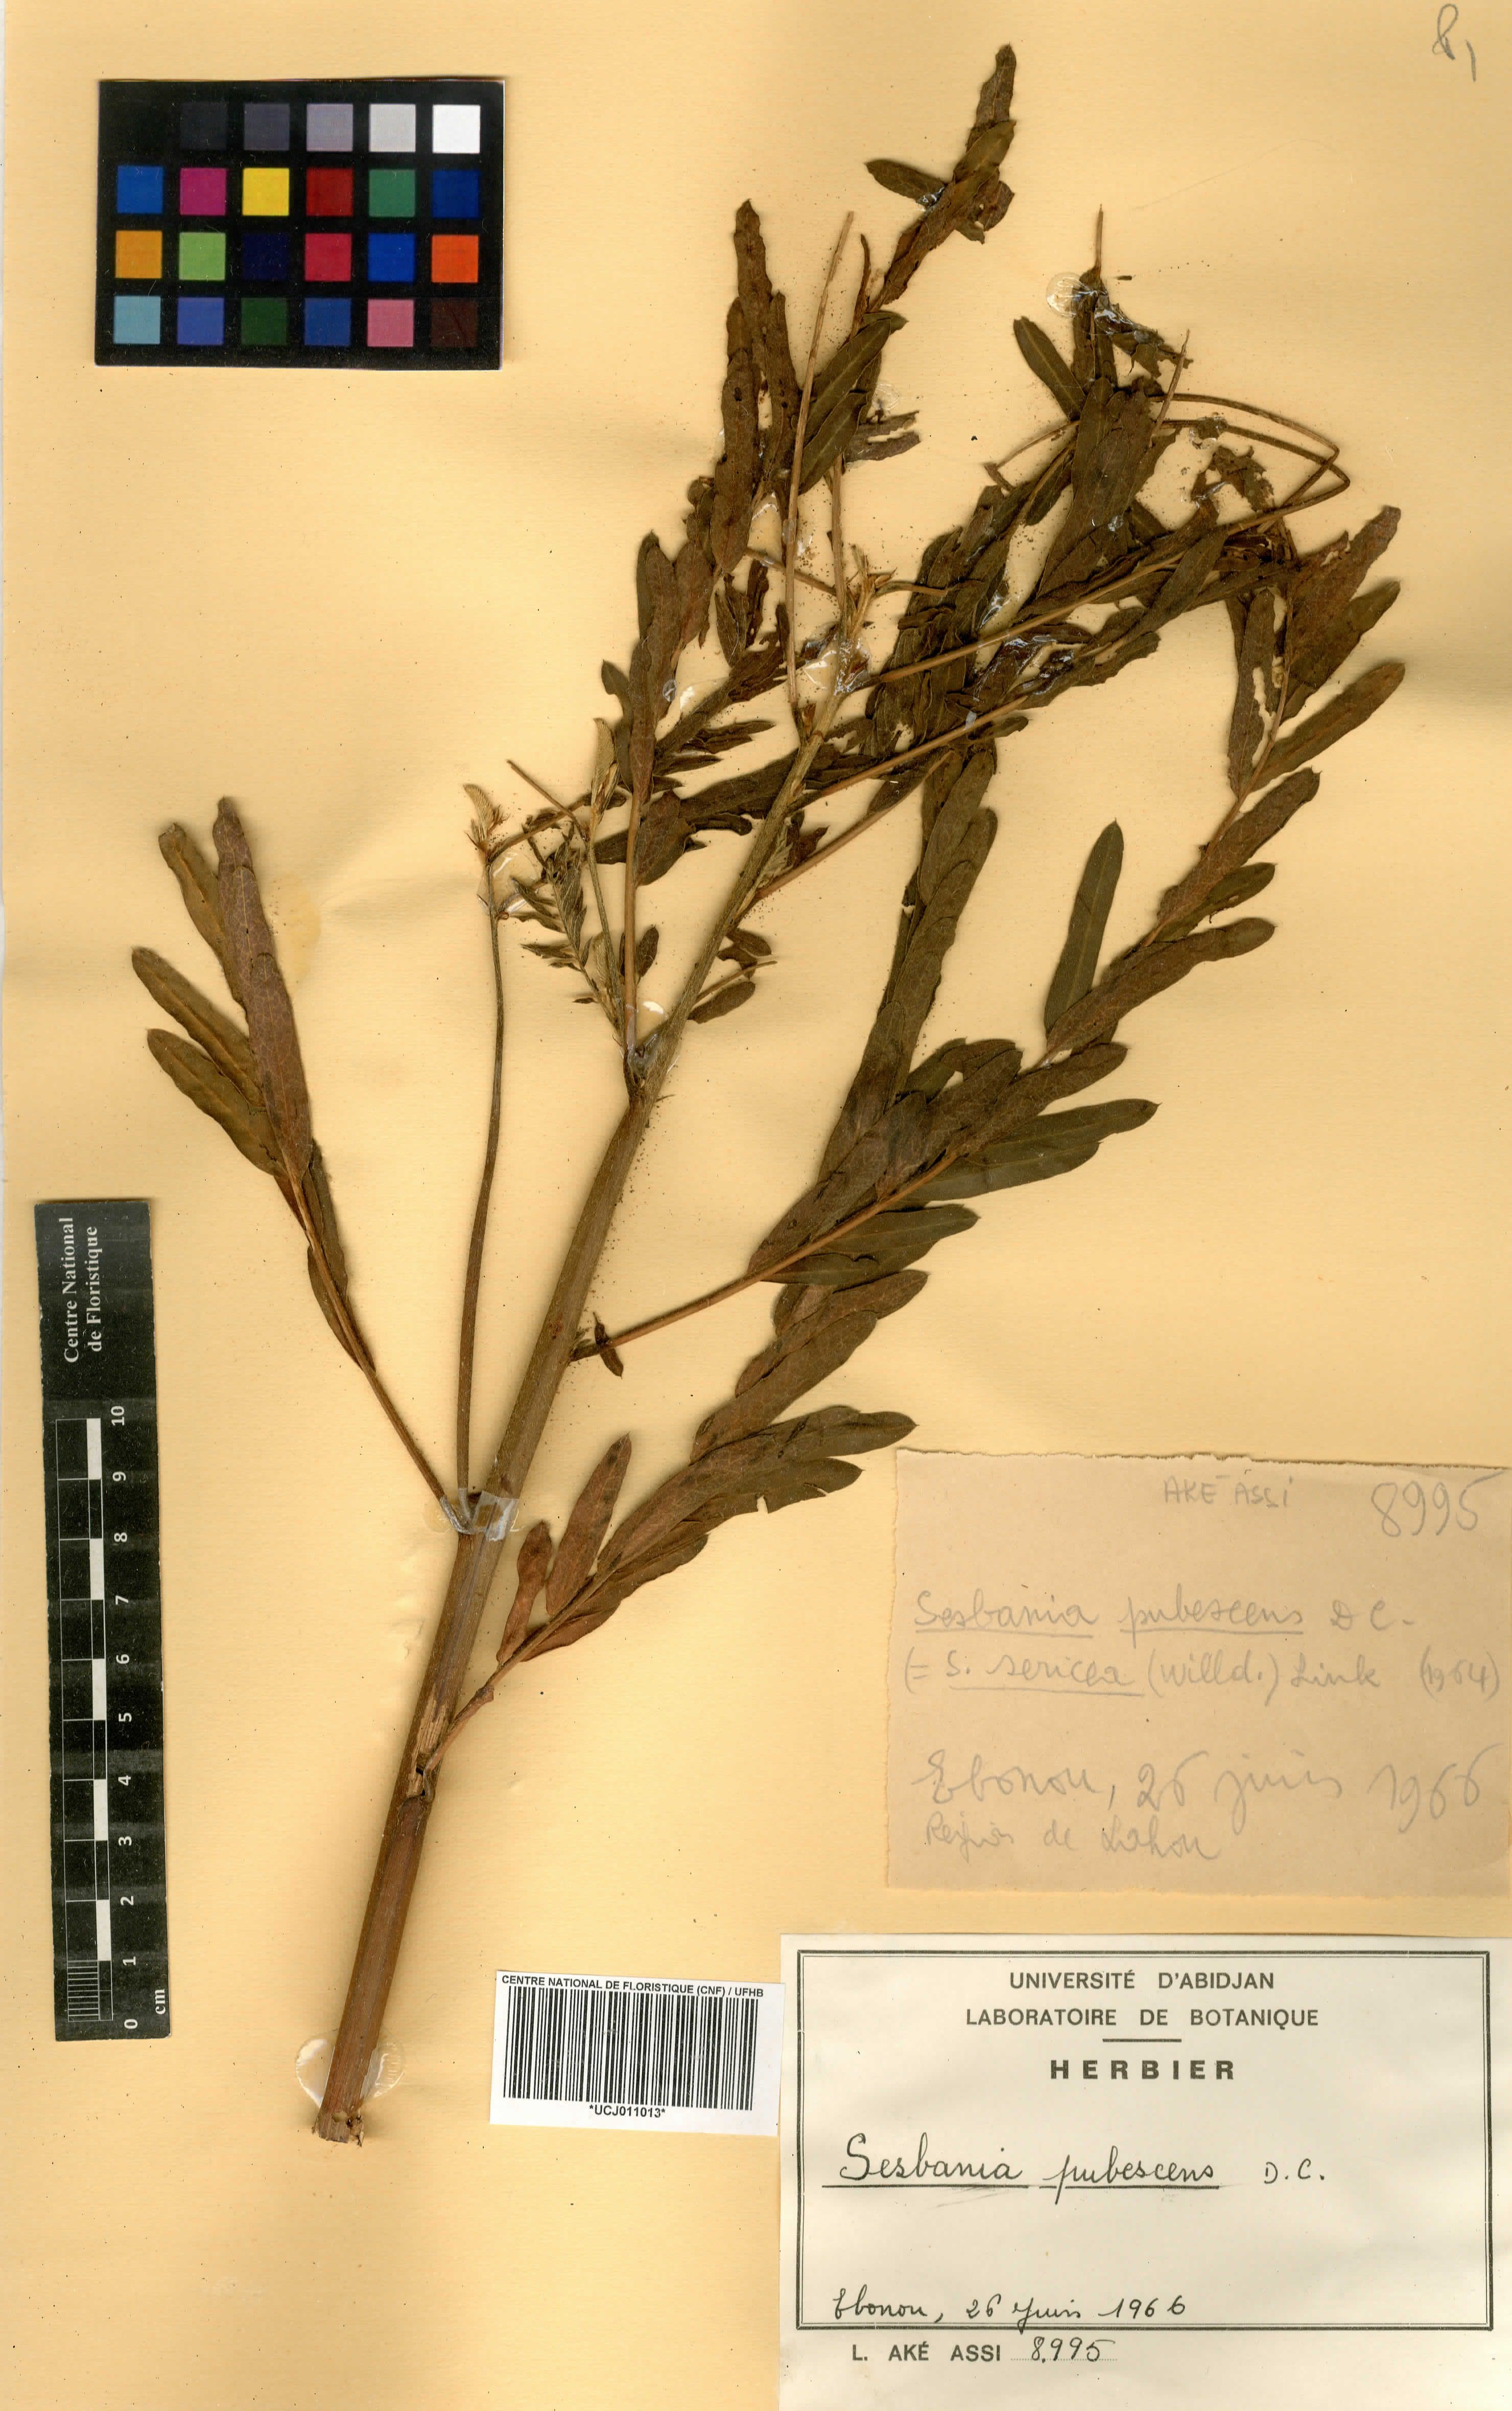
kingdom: Plantae
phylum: Tracheophyta
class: Magnoliopsida
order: Fabales
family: Fabaceae
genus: Sesbania
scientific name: Sesbania sericea
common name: Papagayo
